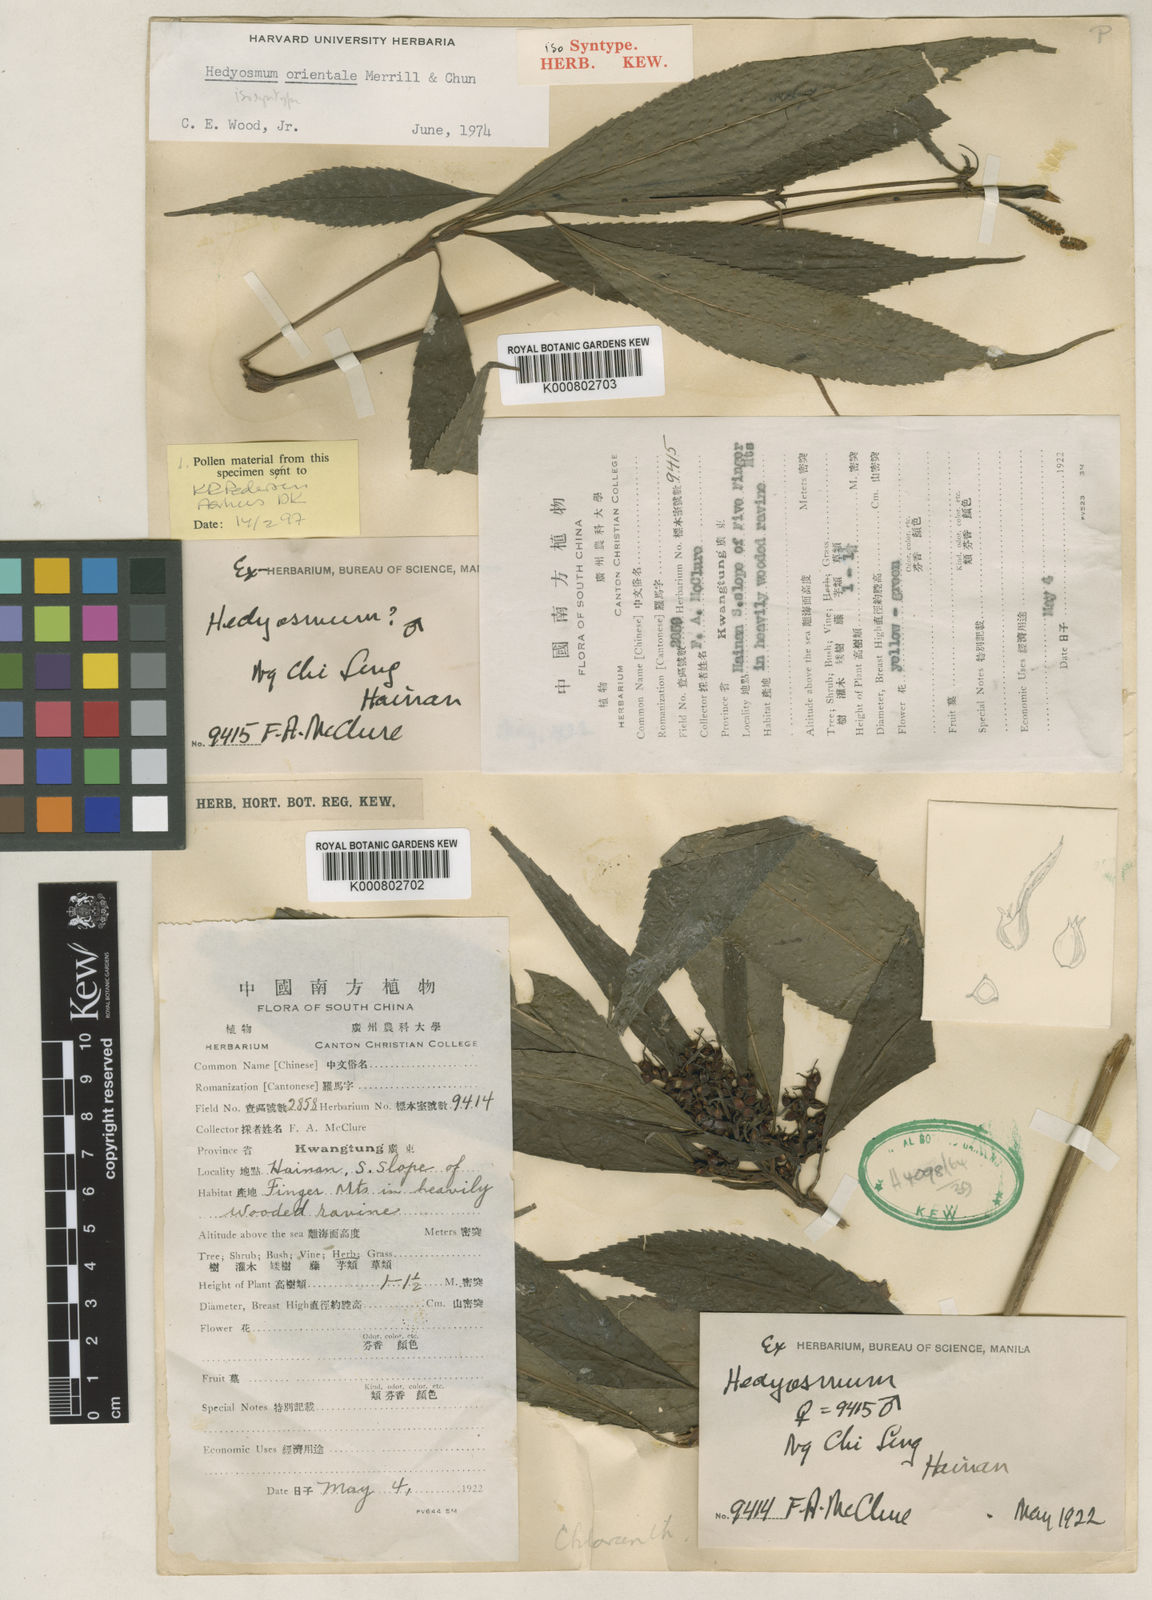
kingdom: Plantae
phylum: Tracheophyta
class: Magnoliopsida
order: Chloranthales
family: Chloranthaceae
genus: Hedyosmum
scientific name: Hedyosmum orientale
